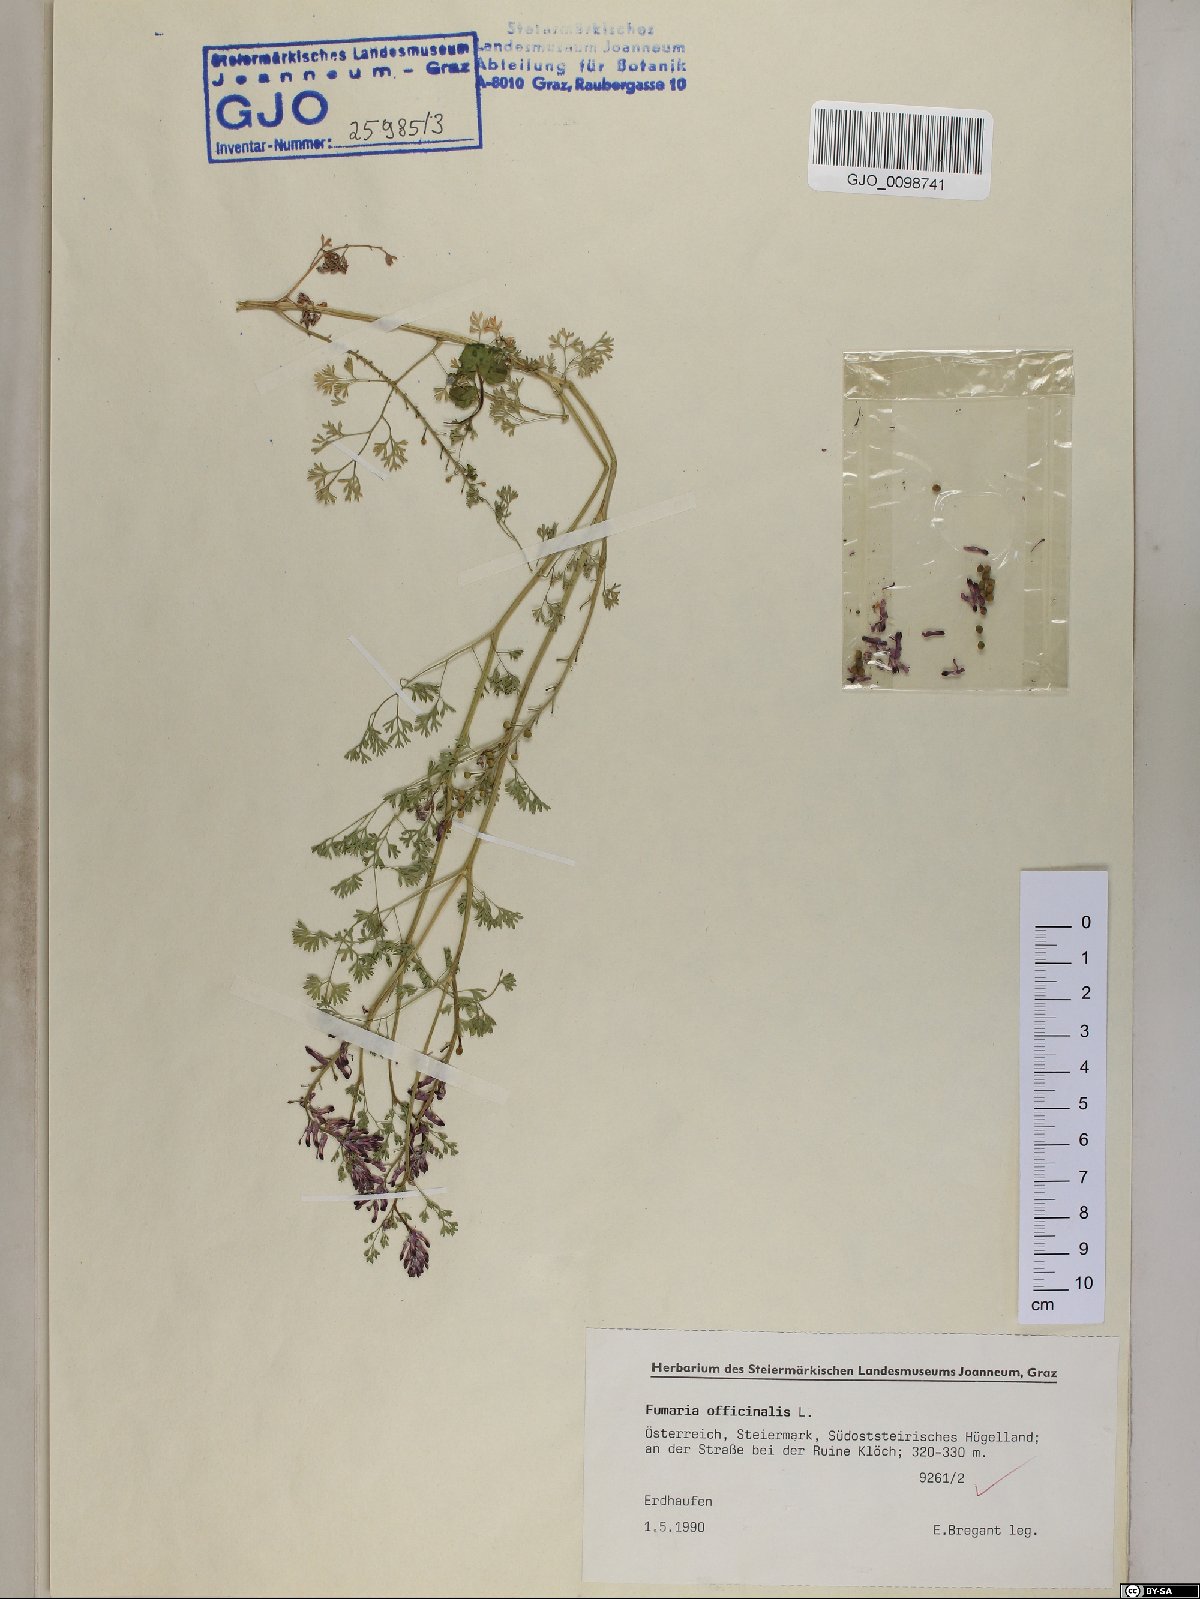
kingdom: Plantae
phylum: Tracheophyta
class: Magnoliopsida
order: Ranunculales
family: Papaveraceae
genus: Fumaria
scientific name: Fumaria officinalis
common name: Common fumitory
